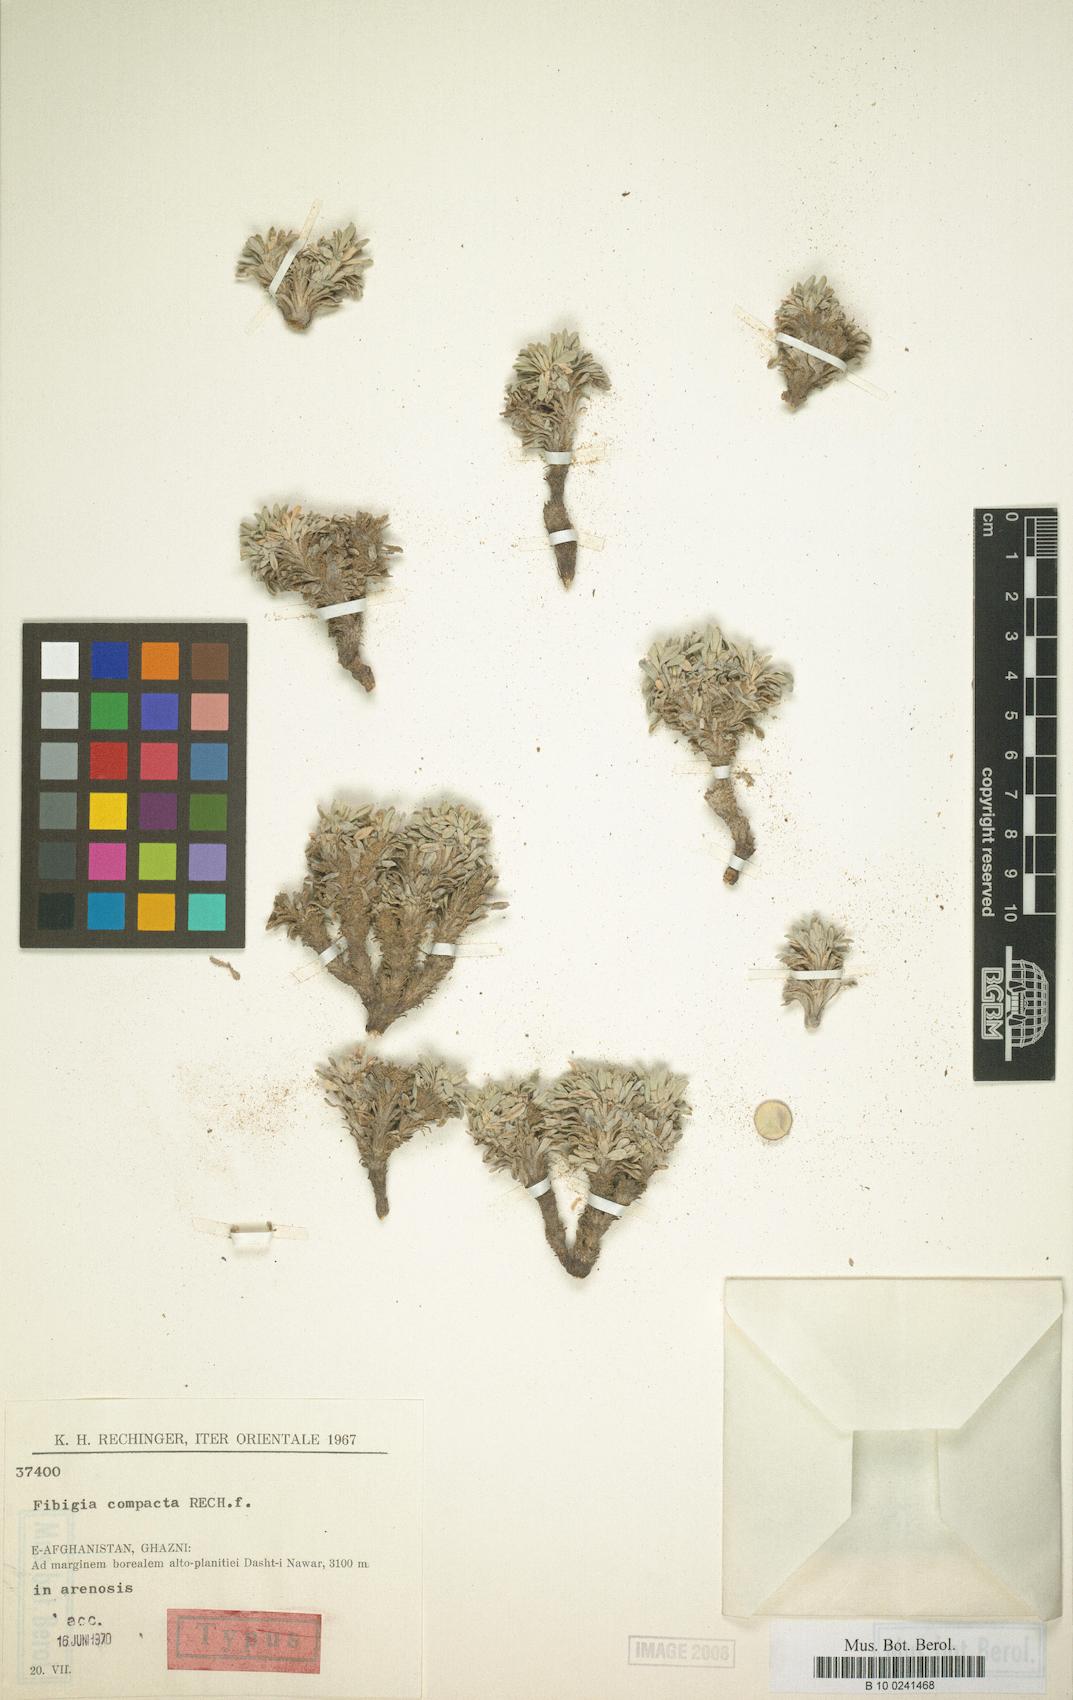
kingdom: Plantae
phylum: Tracheophyta
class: Magnoliopsida
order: Brassicales
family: Brassicaceae
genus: Irania
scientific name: Irania compacta
